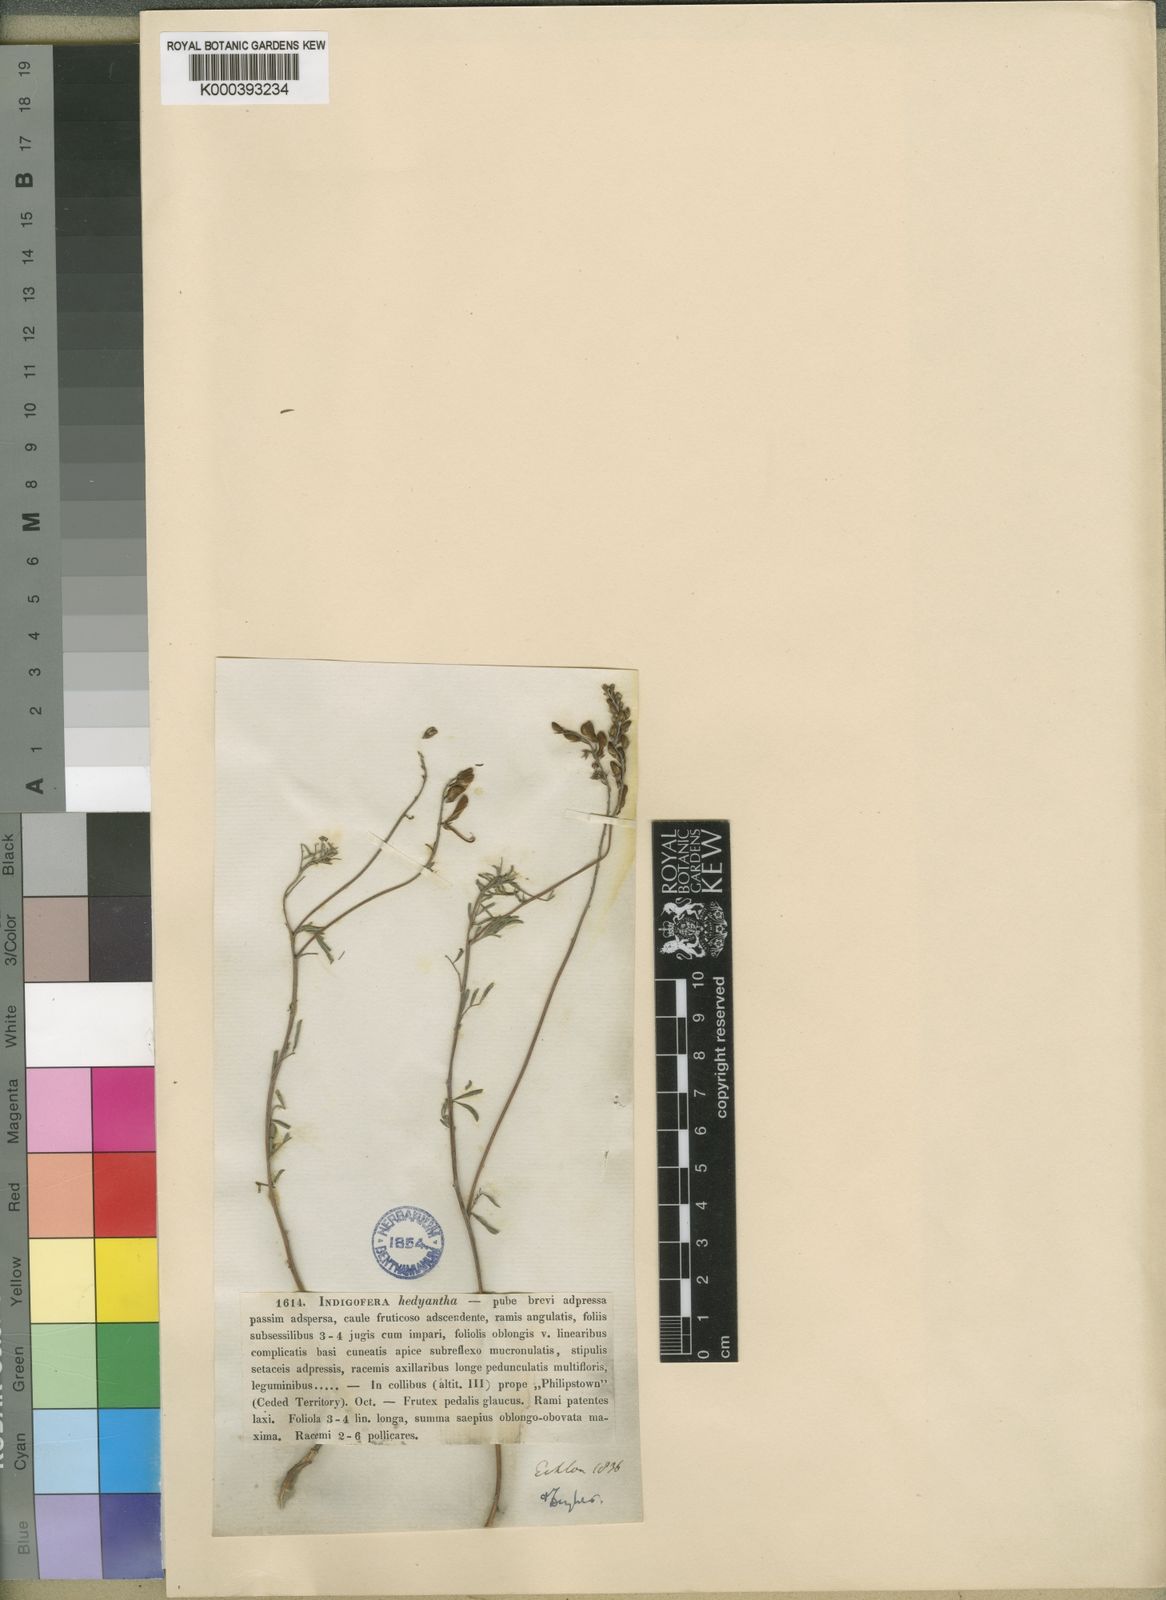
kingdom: Plantae
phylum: Tracheophyta
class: Magnoliopsida
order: Fabales
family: Fabaceae
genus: Indigofera
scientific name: Indigofera hedyantha
